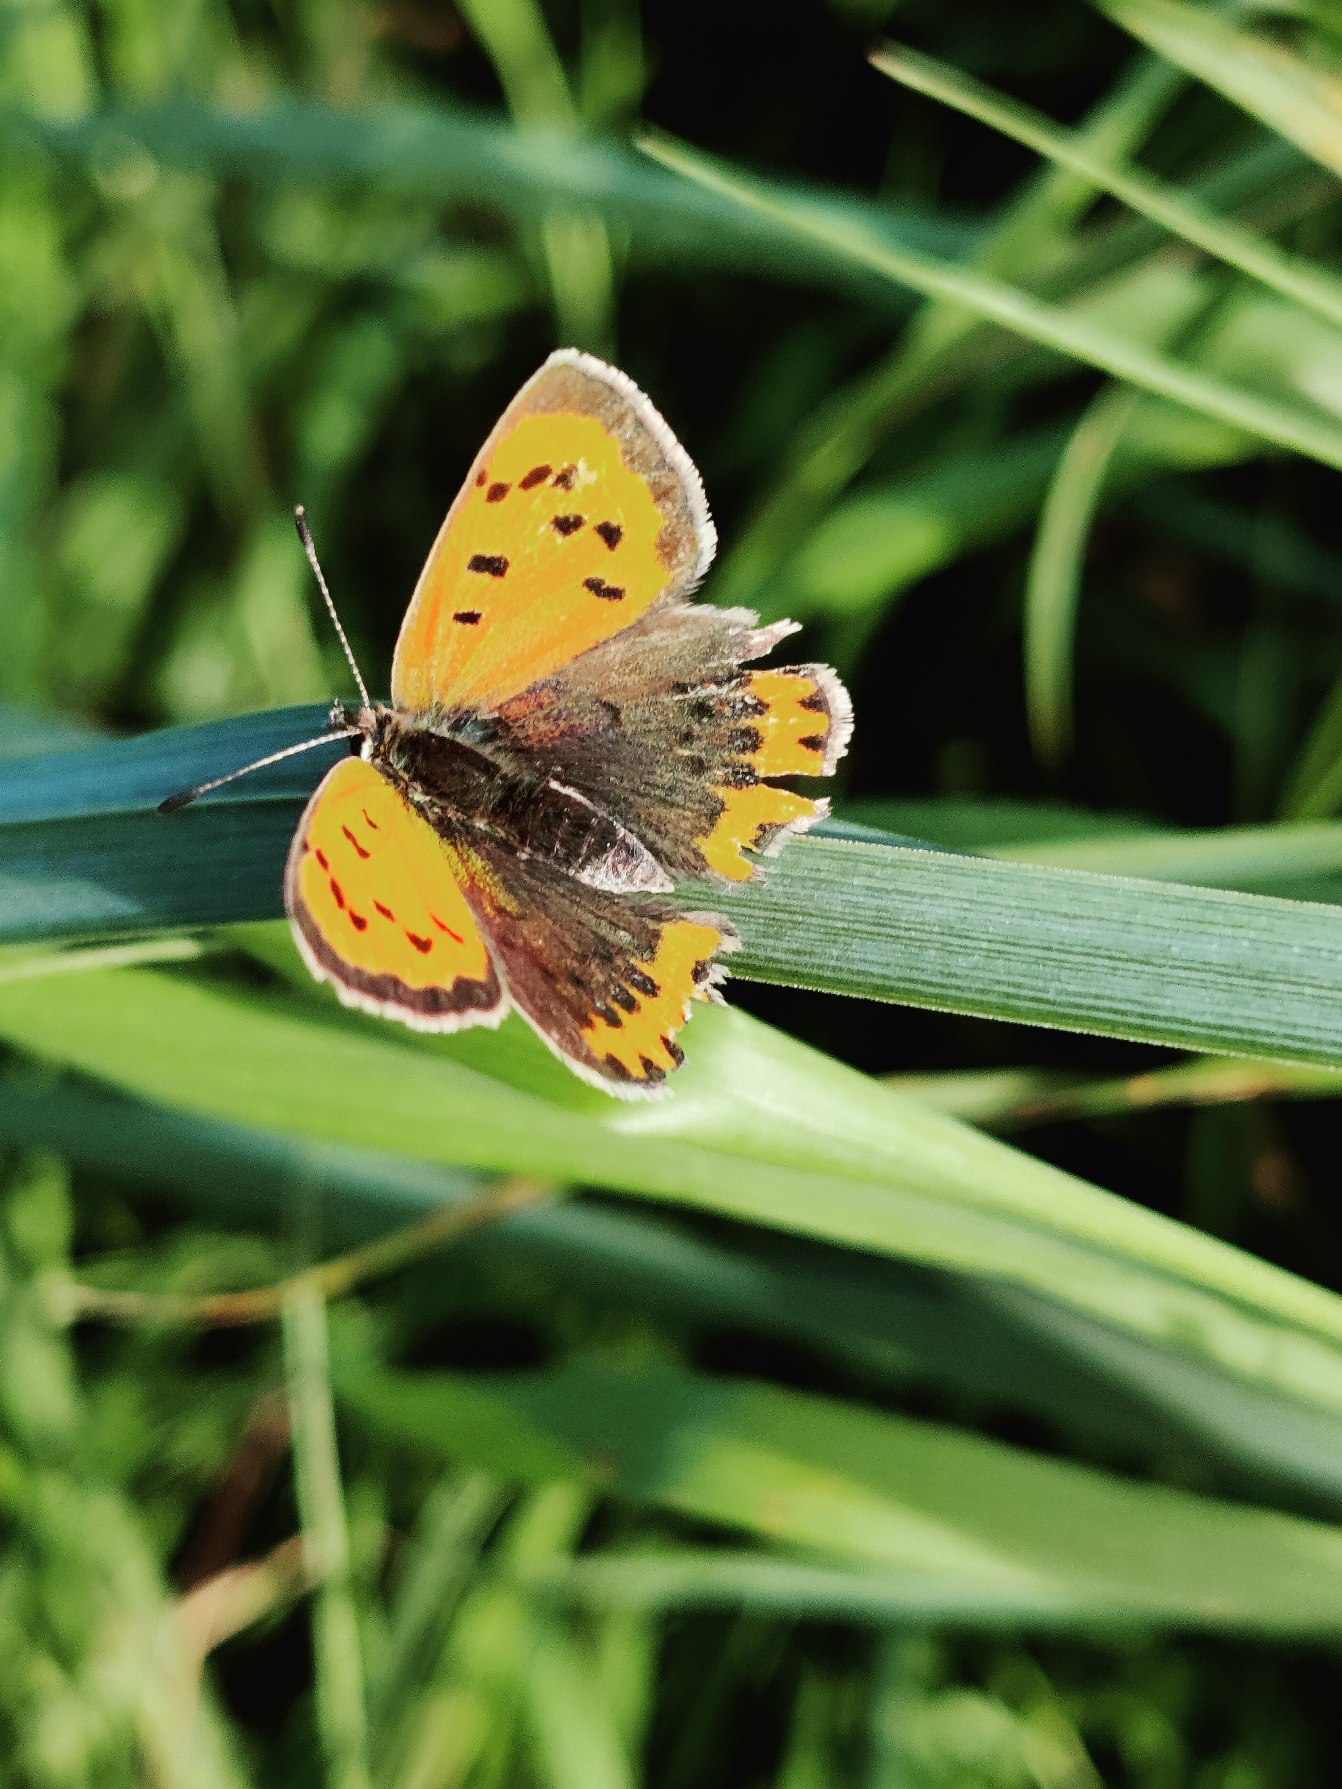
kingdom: Animalia
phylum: Arthropoda
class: Insecta
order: Lepidoptera
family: Lycaenidae
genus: Lycaena
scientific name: Lycaena phlaeas
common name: Lille ildfugl
